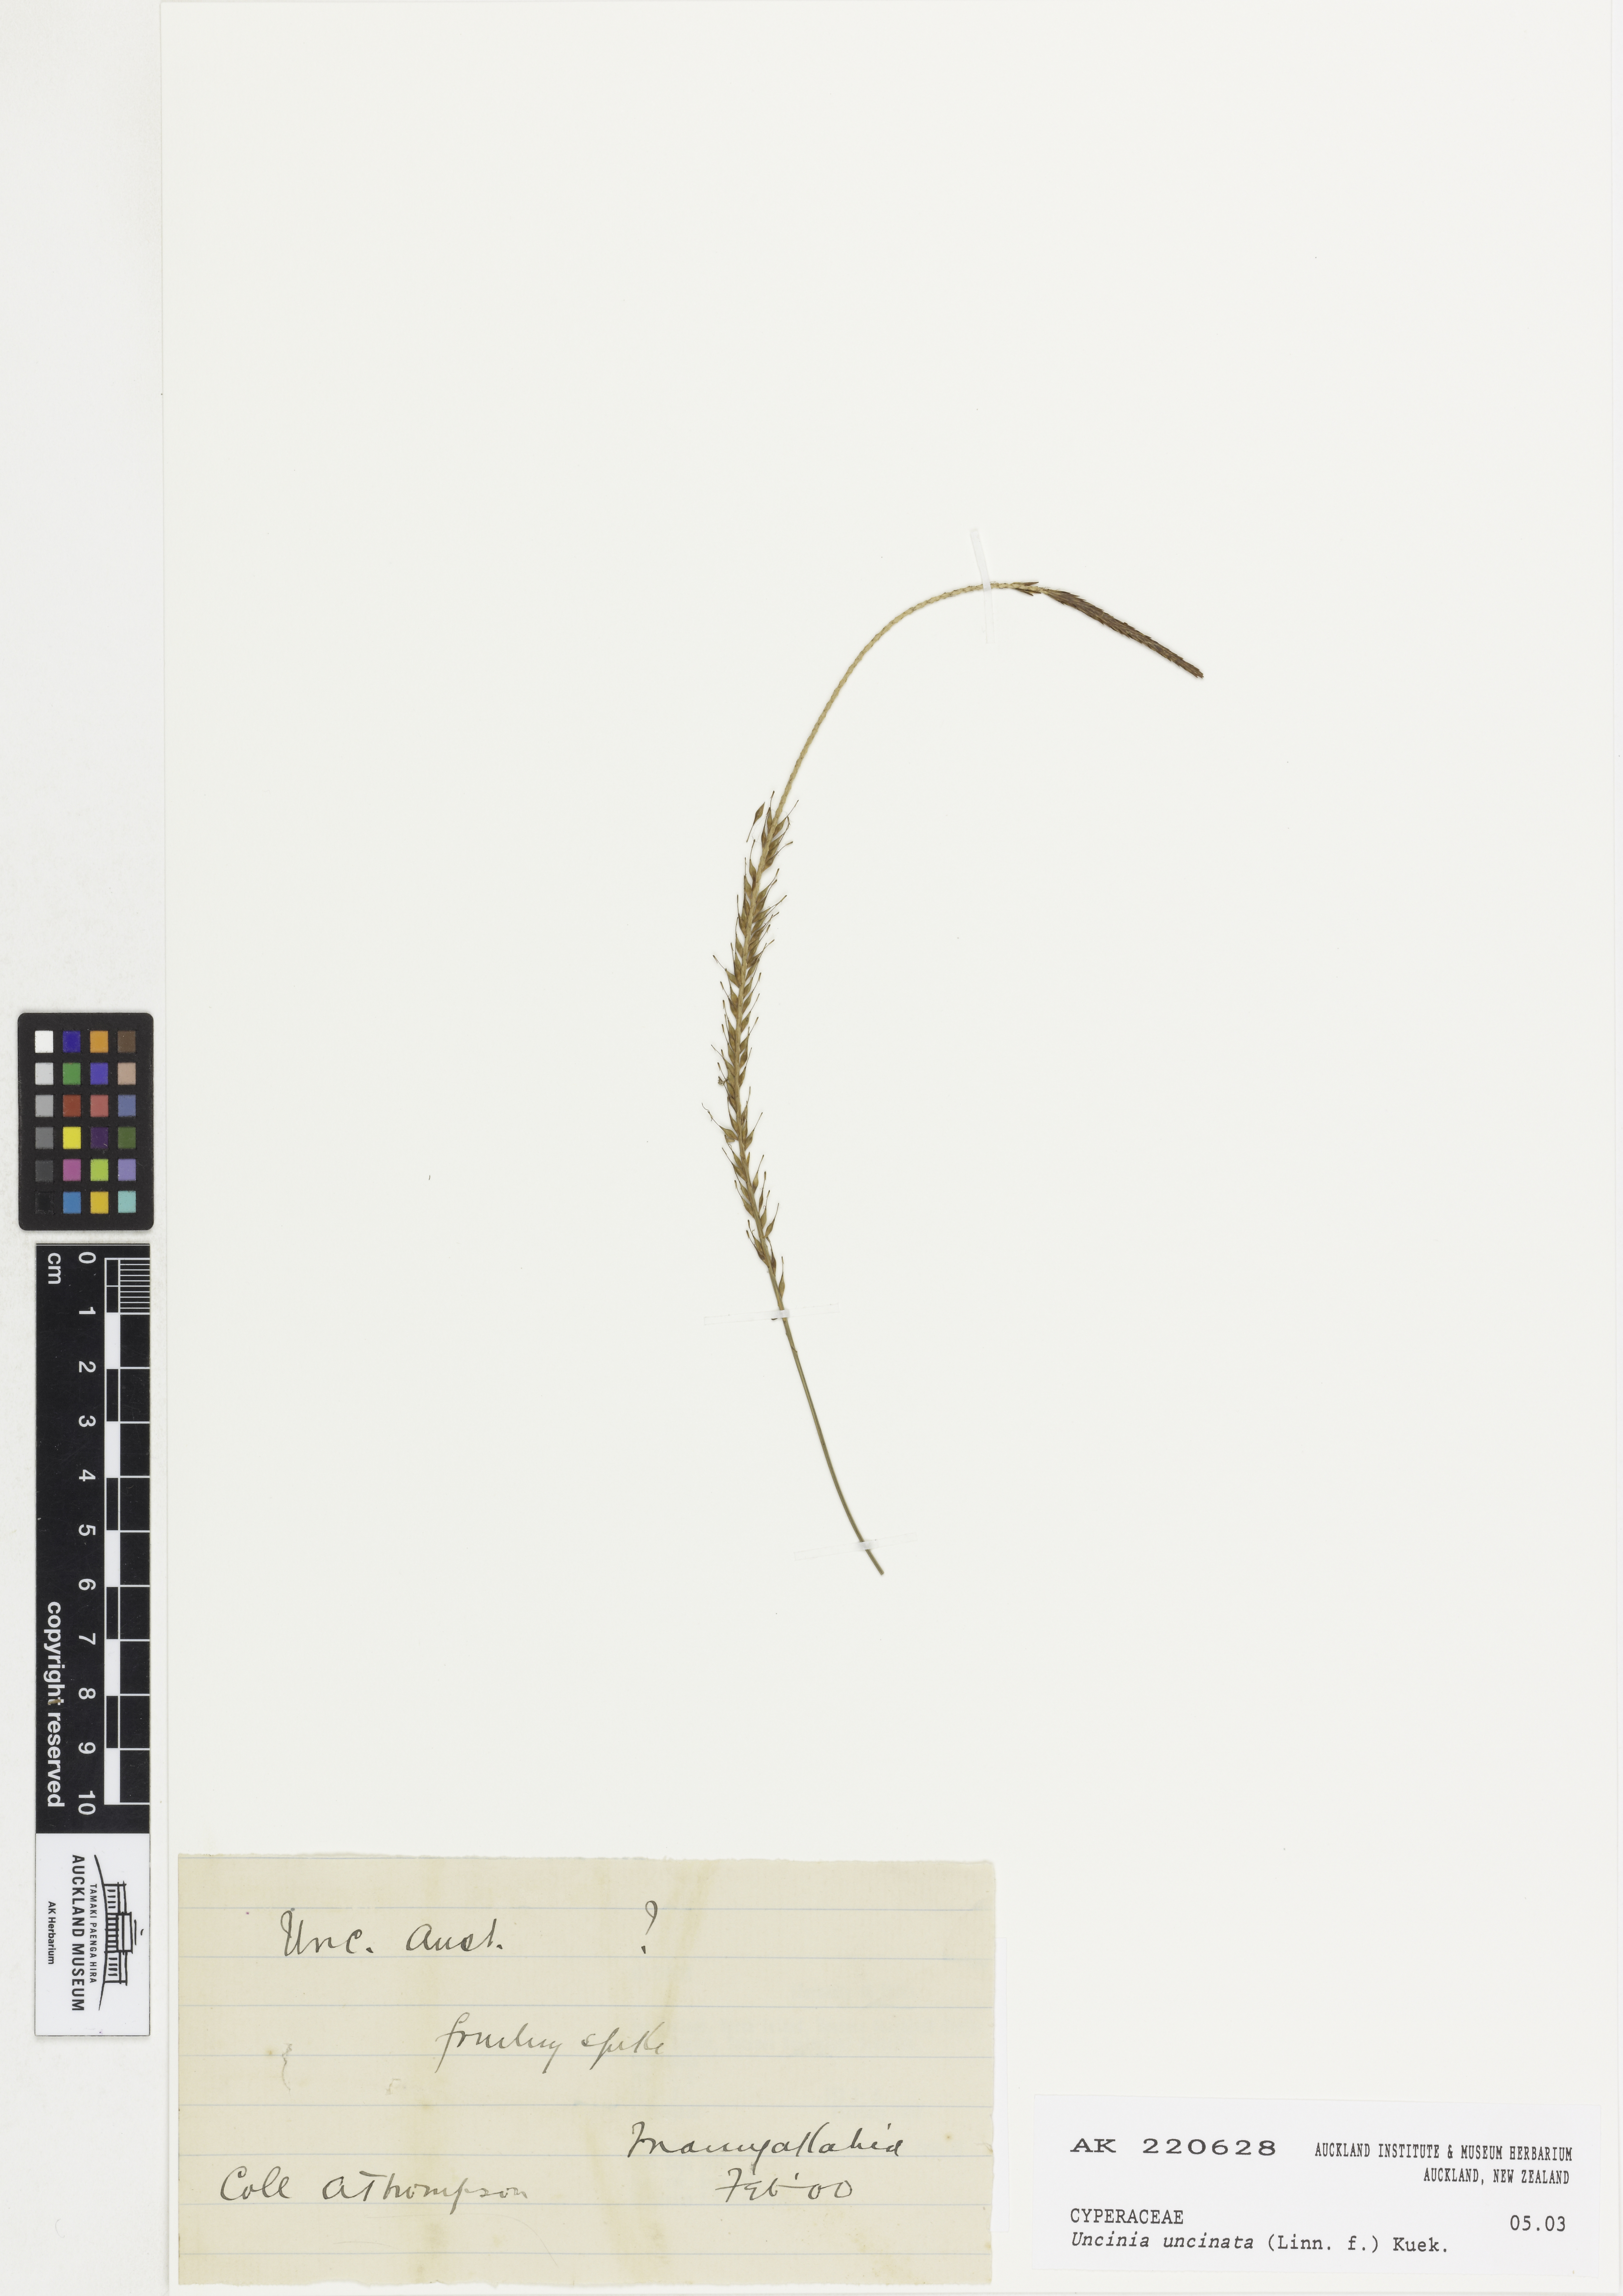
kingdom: Plantae
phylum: Tracheophyta
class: Liliopsida
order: Poales
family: Cyperaceae
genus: Carex
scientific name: Carex uncinata
